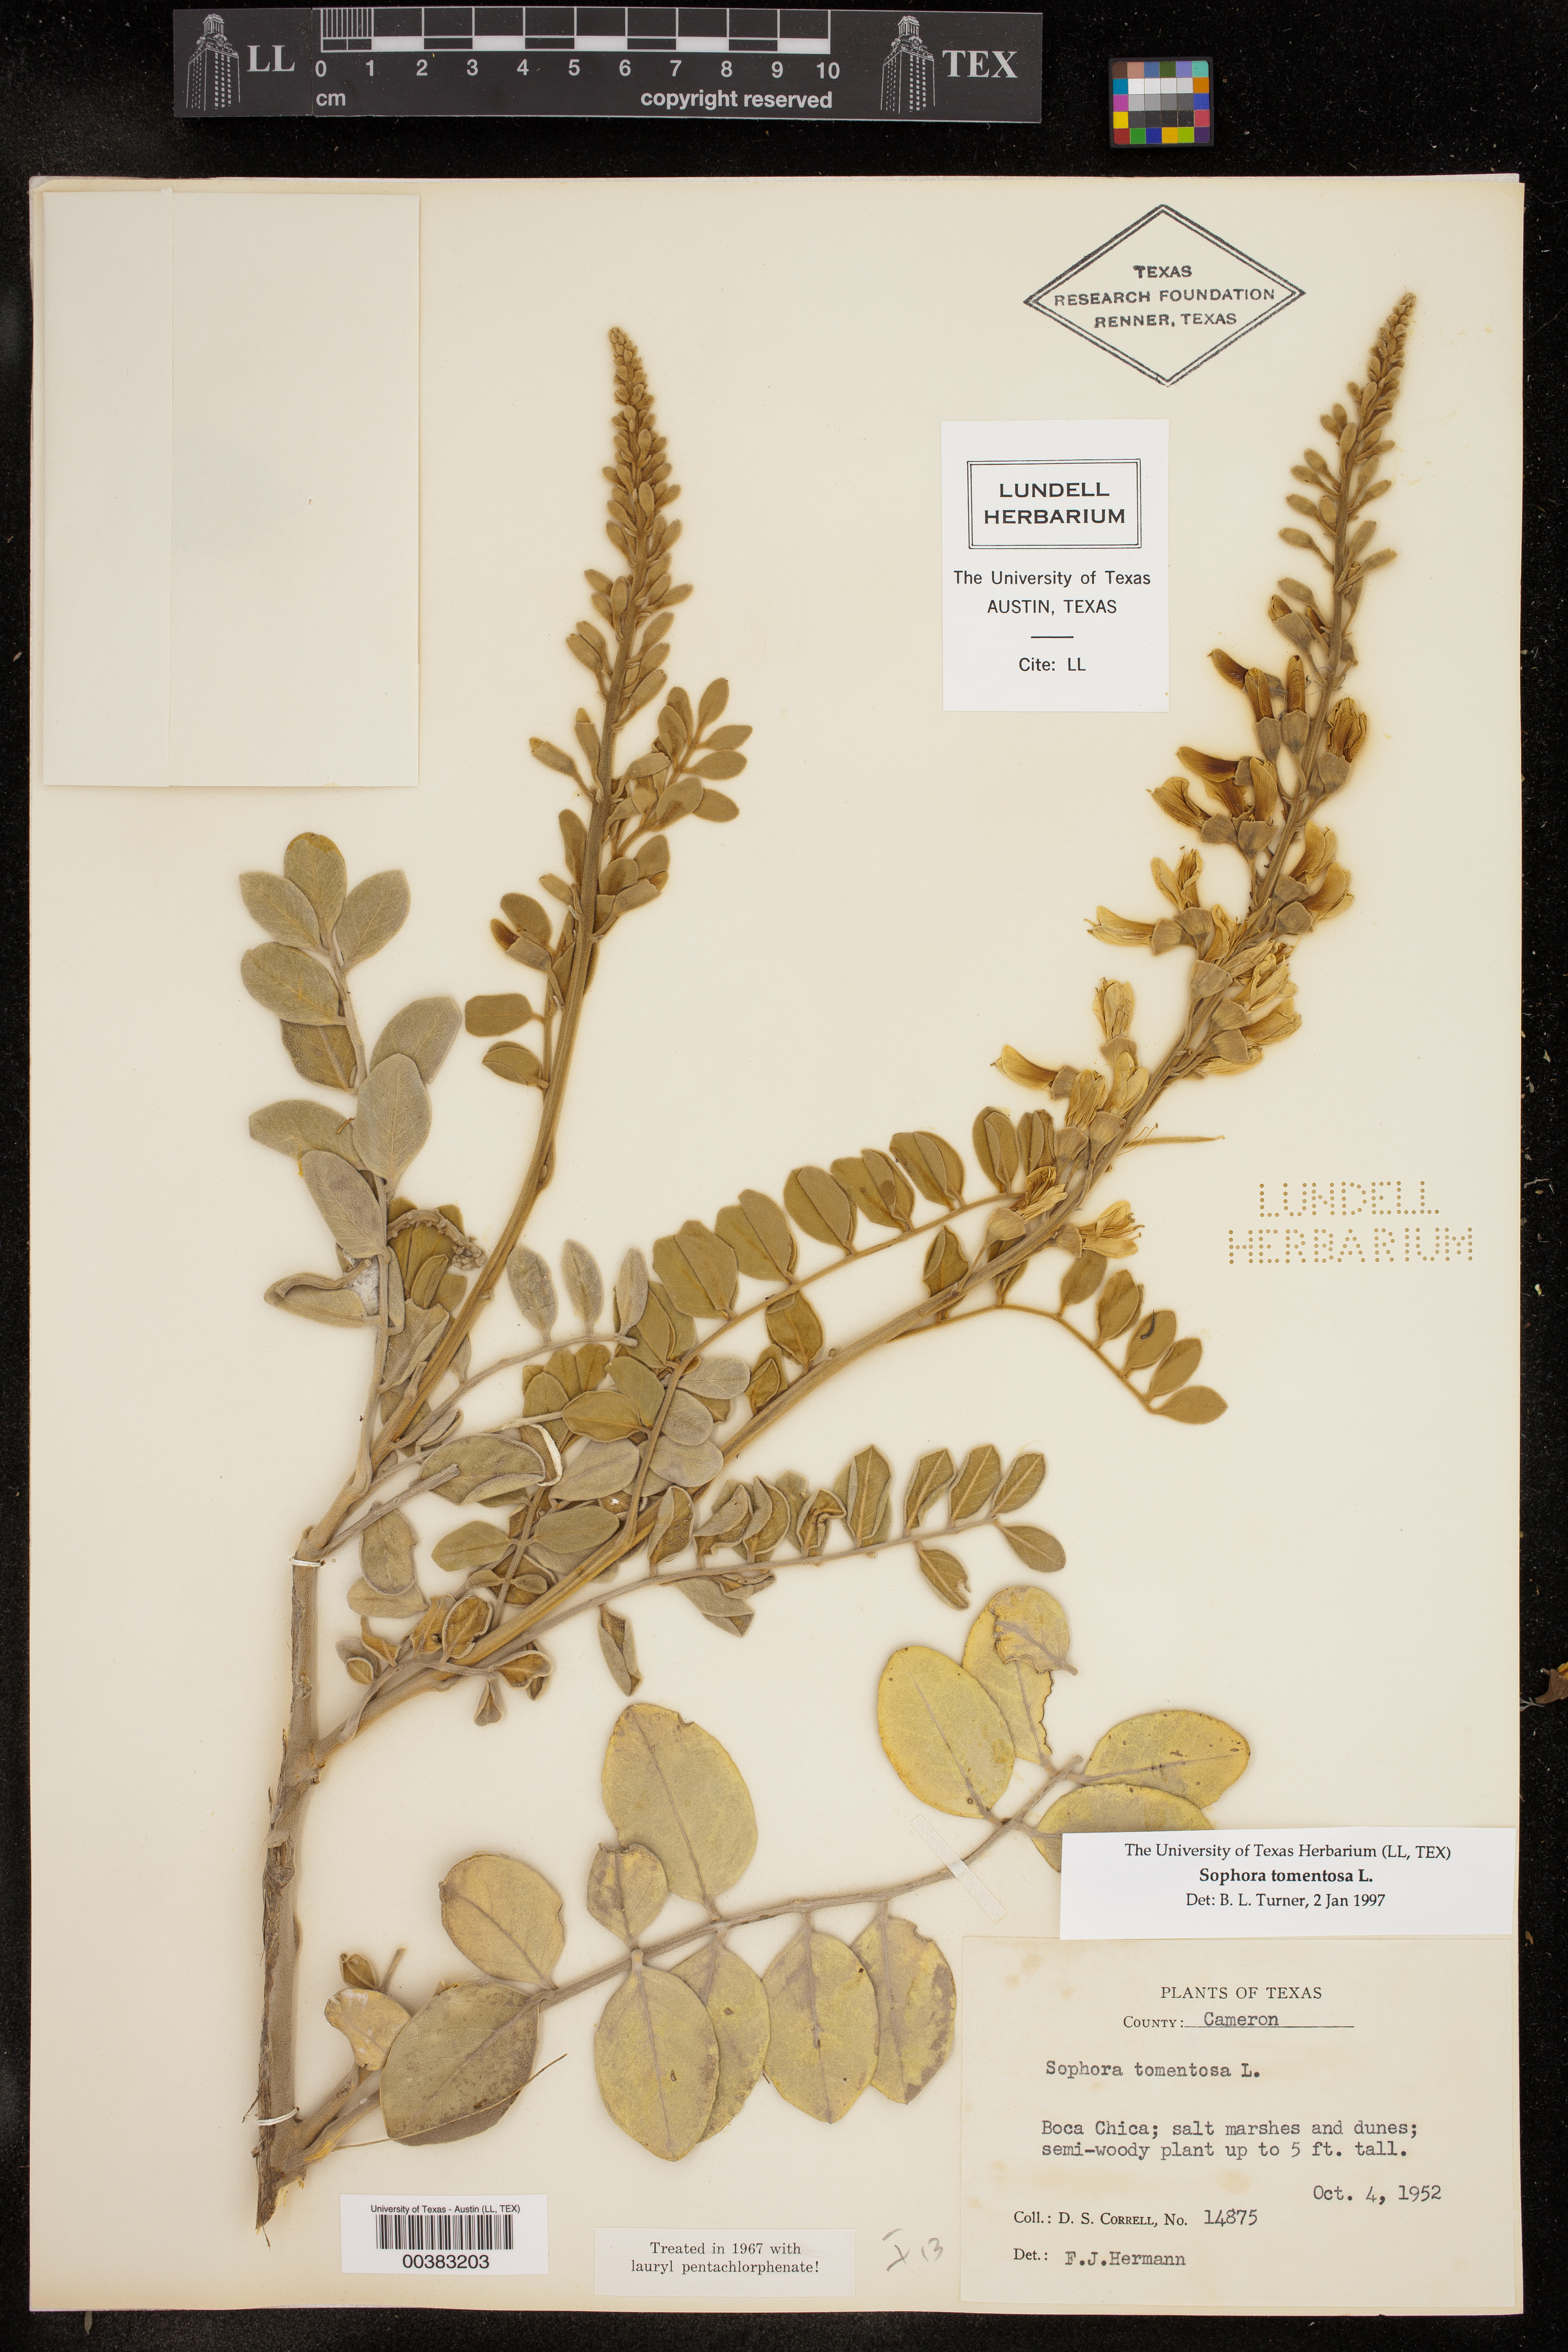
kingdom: Plantae
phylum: Tracheophyta
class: Magnoliopsida
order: Fabales
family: Fabaceae
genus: Sophora
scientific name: Sophora tomentosa
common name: Yellow necklacepod
